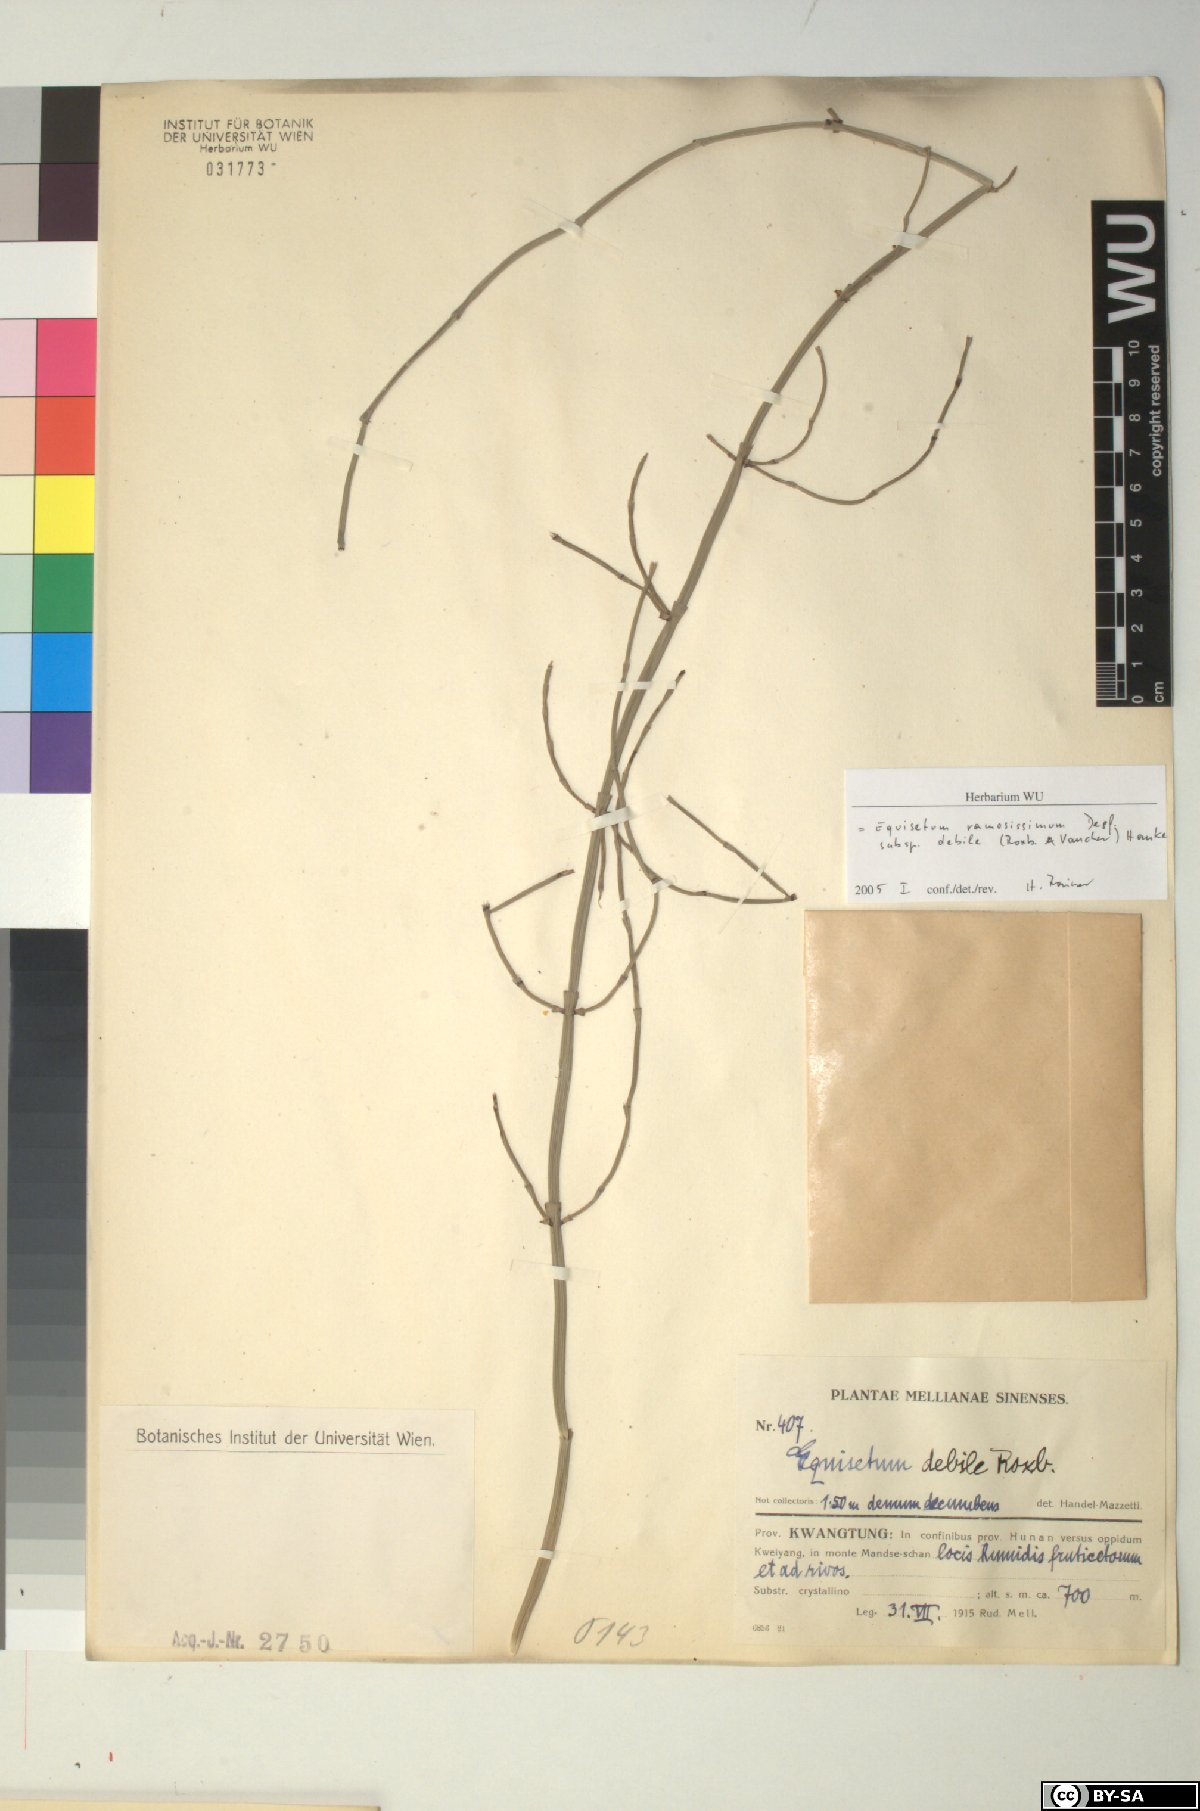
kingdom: Plantae
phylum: Tracheophyta
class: Polypodiopsida
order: Equisetales
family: Equisetaceae
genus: Equisetum
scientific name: Equisetum ramosissimum
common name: Branched horsetail
